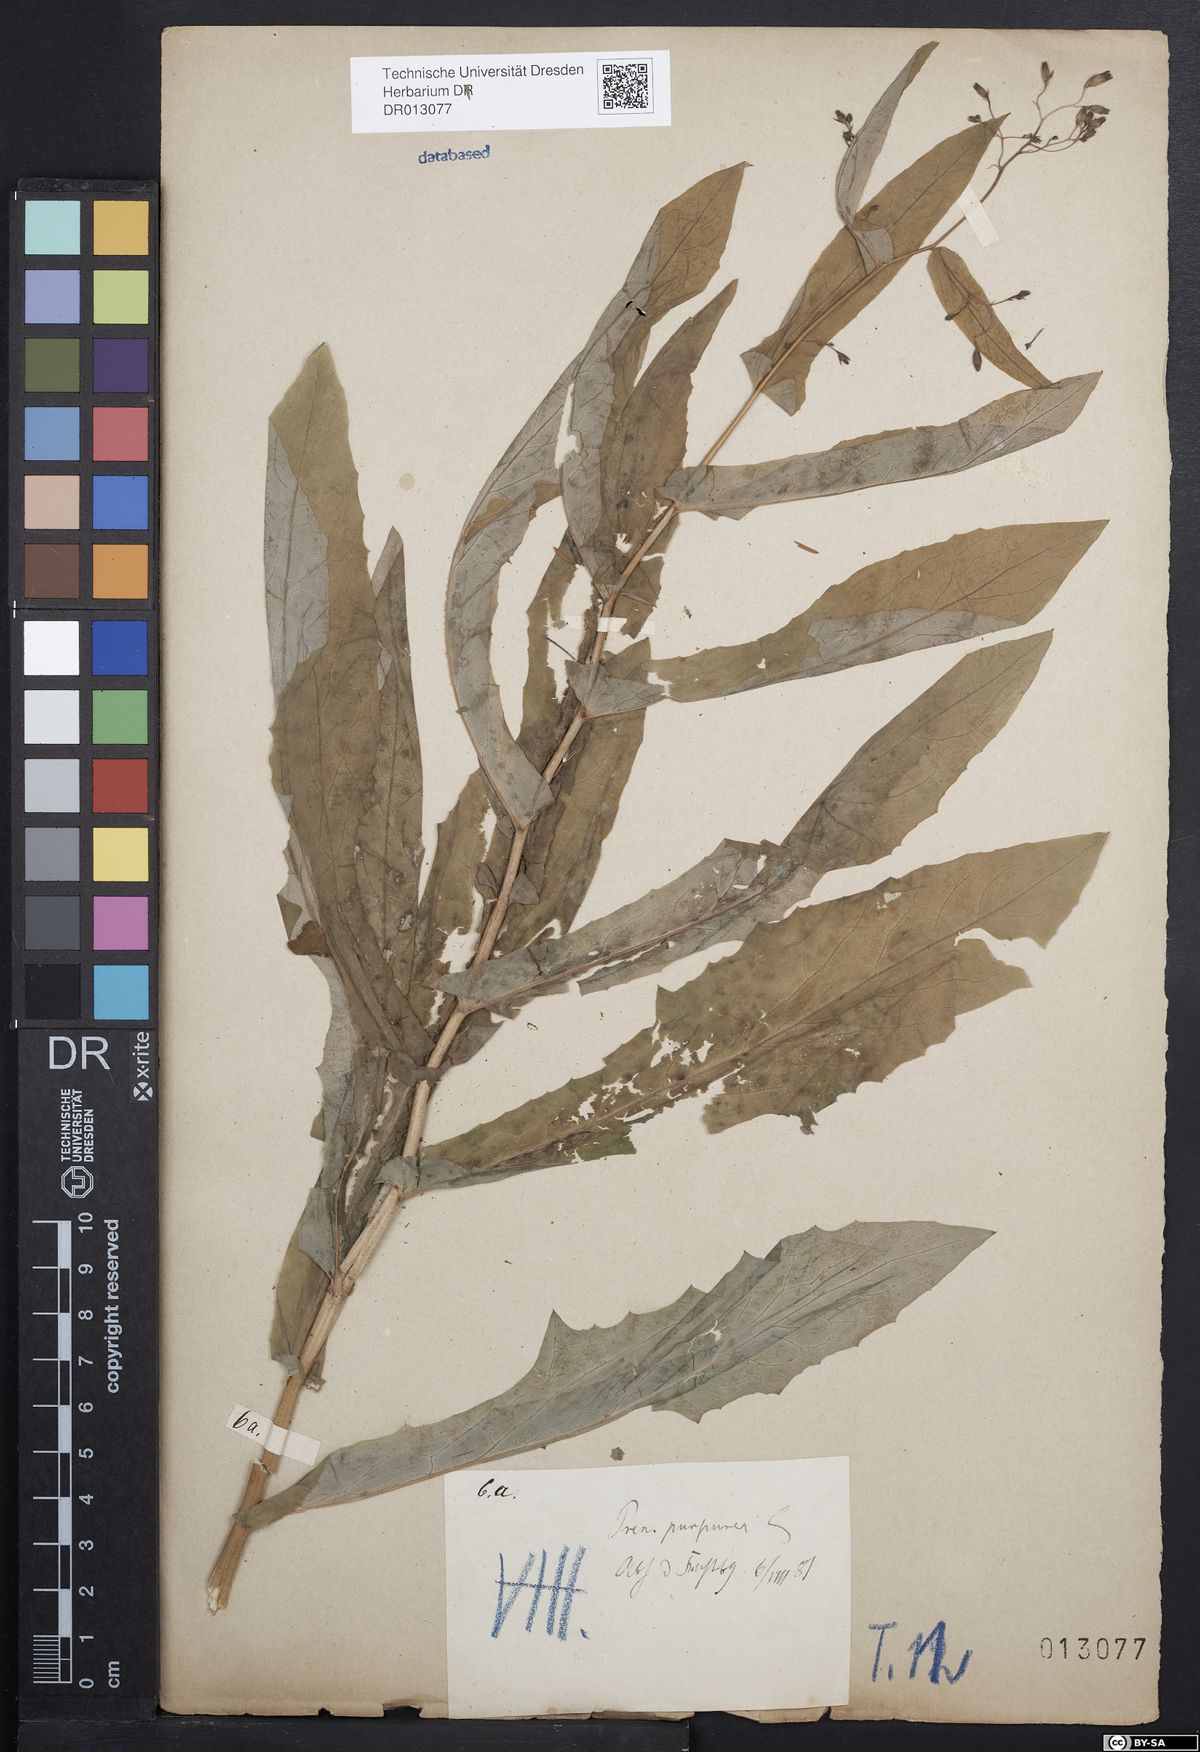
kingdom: Plantae
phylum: Tracheophyta
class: Magnoliopsida
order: Asterales
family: Asteraceae
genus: Prenanthes
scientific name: Prenanthes purpurea
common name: Purple lettuce
